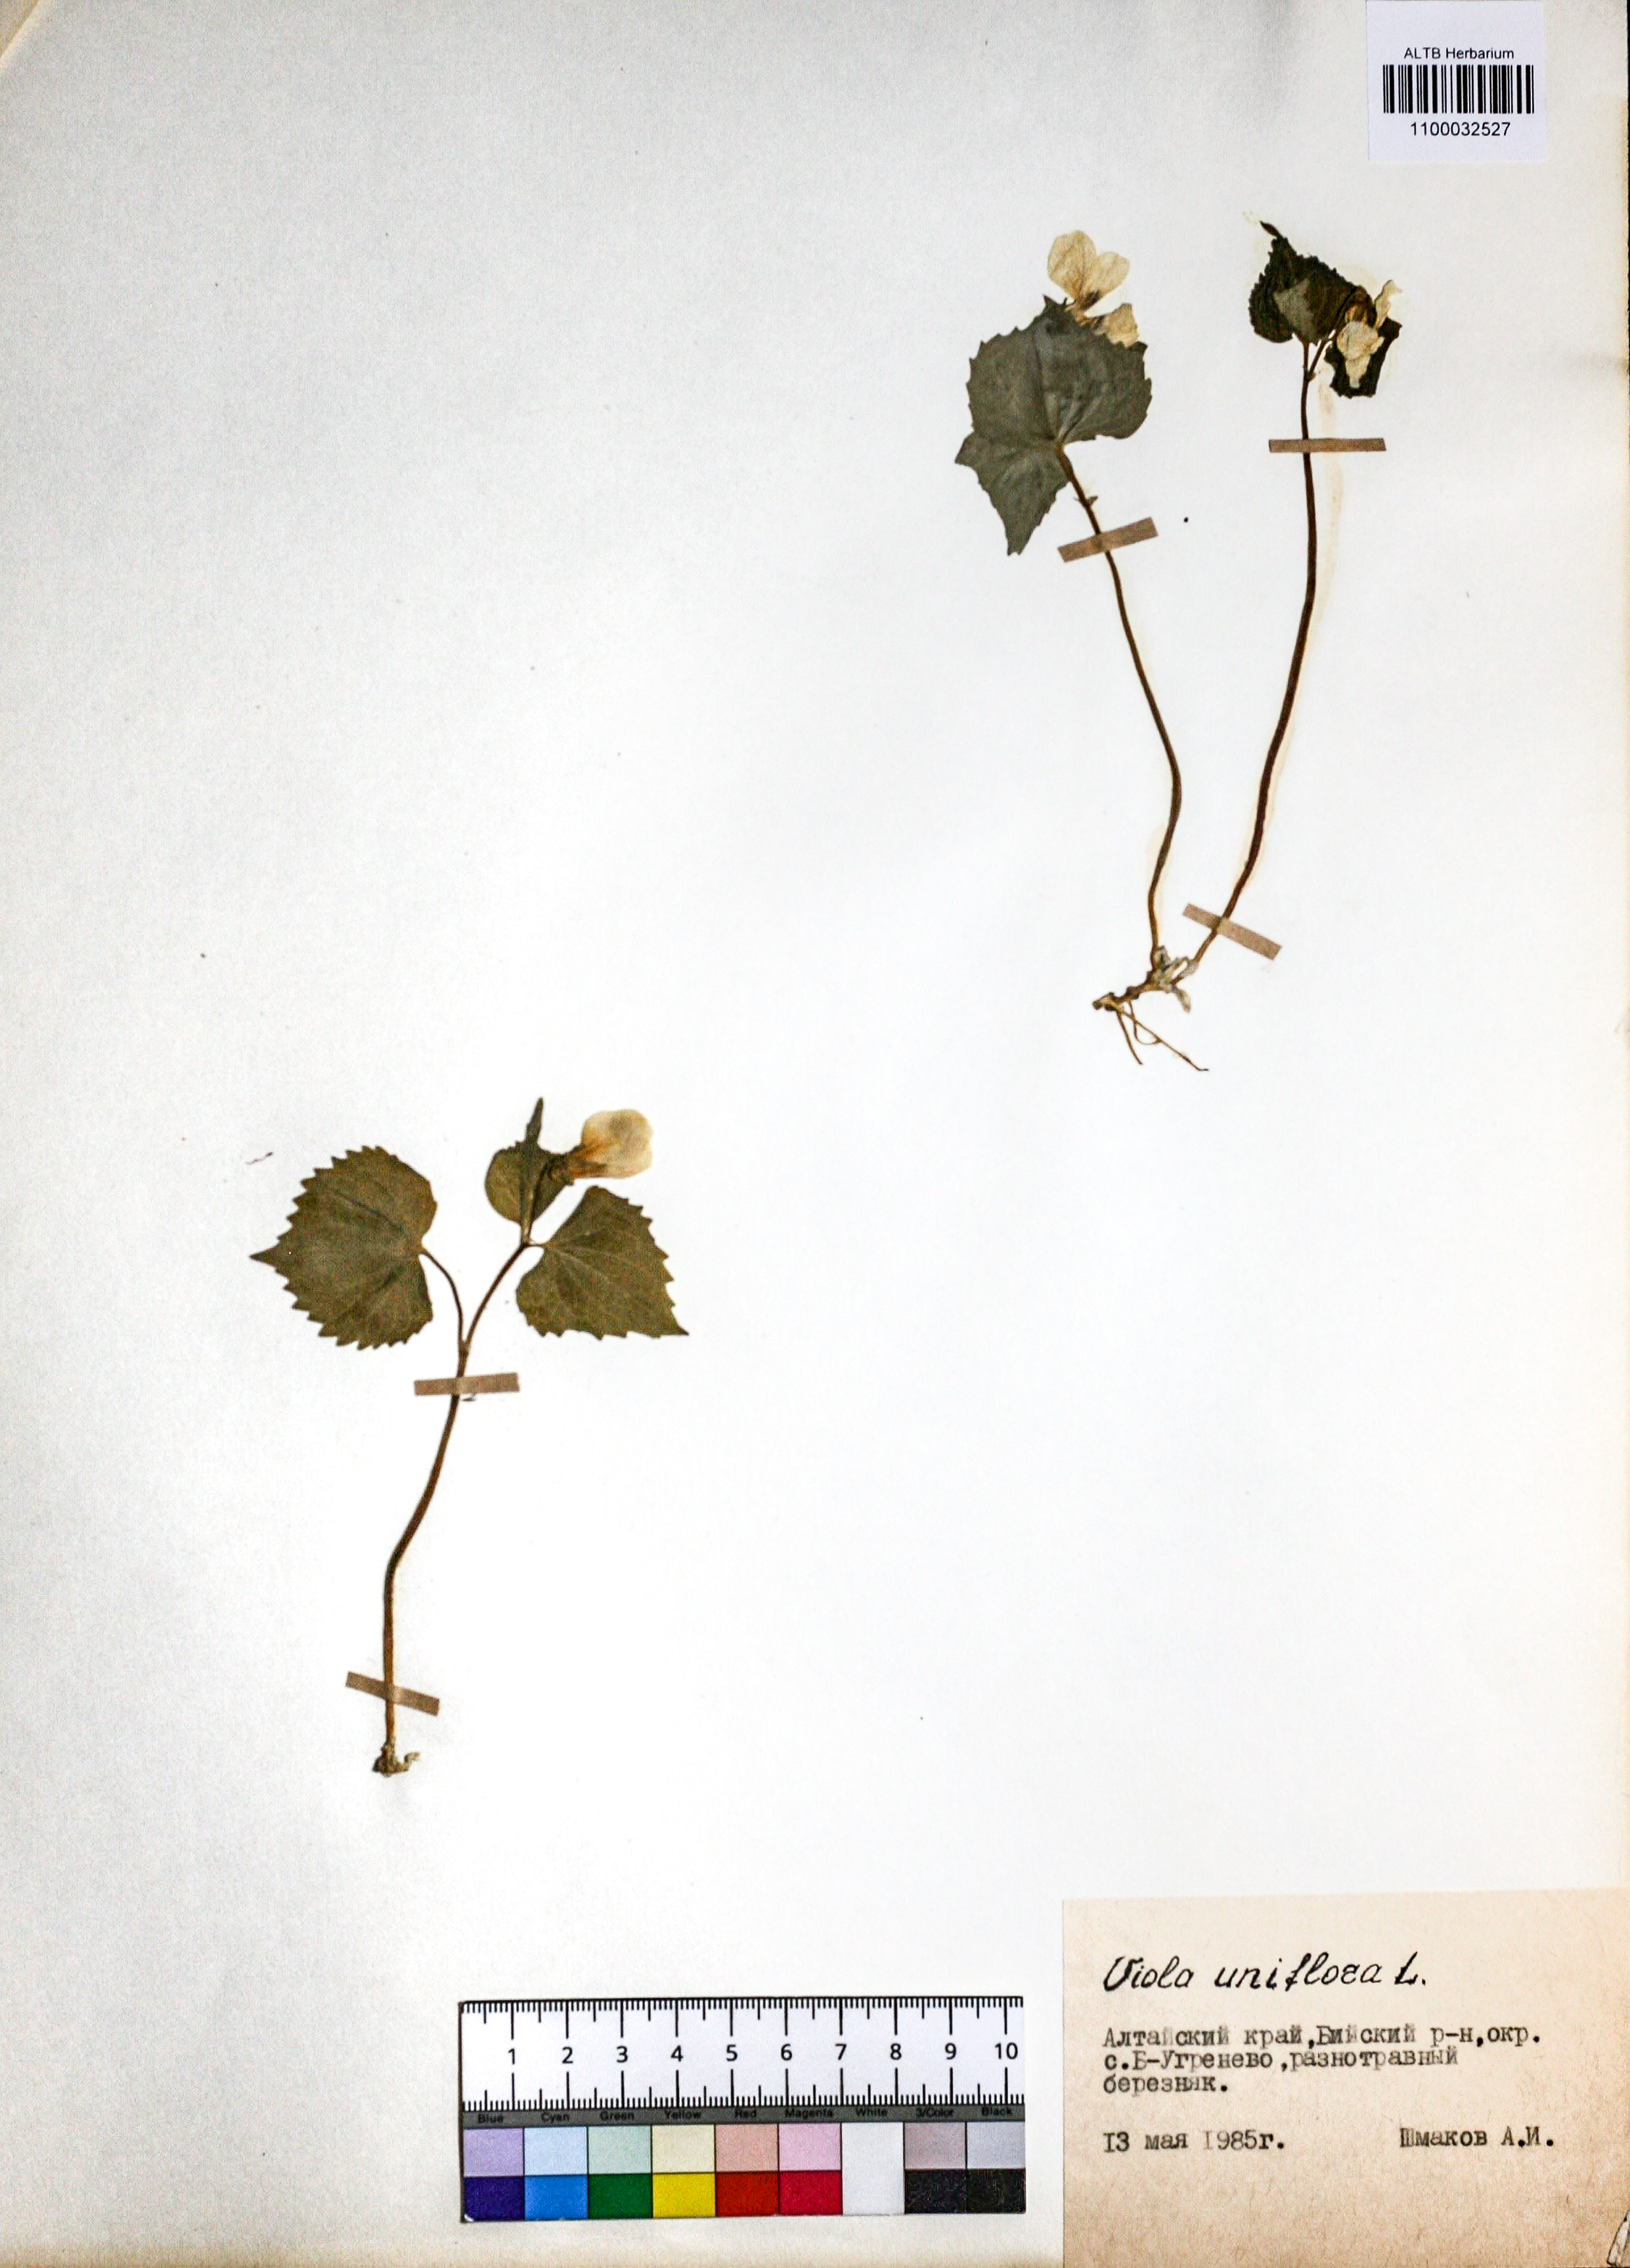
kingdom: Plantae
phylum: Tracheophyta
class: Magnoliopsida
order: Malpighiales
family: Violaceae
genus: Viola
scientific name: Viola uniflora
